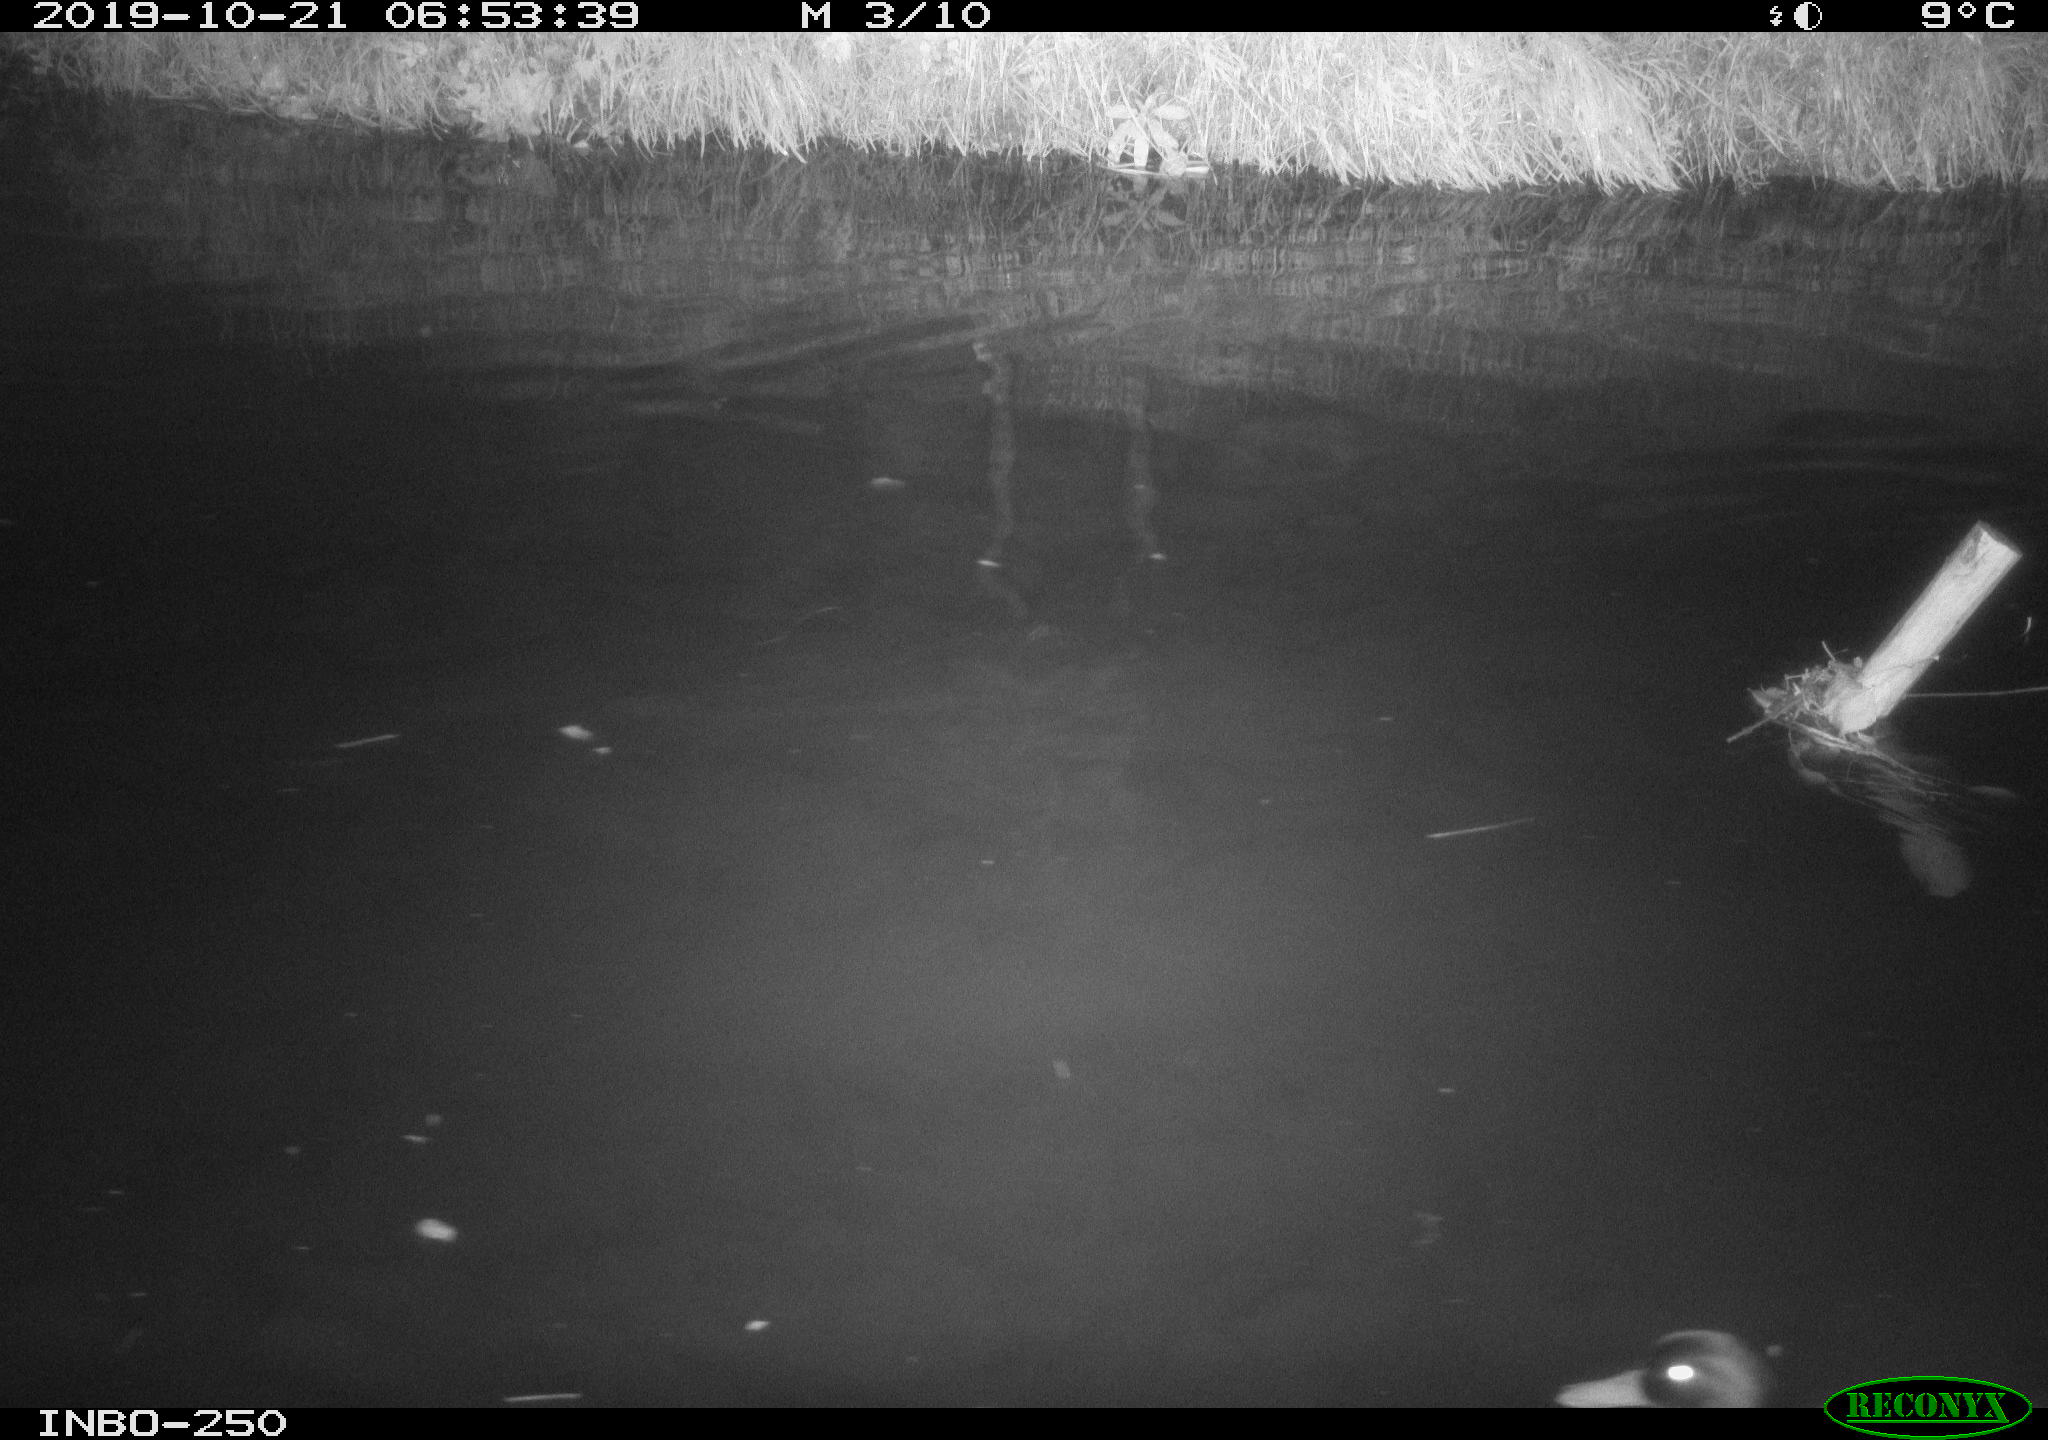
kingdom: Animalia
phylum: Chordata
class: Aves
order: Anseriformes
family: Anatidae
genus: Anas
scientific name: Anas platyrhynchos
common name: Mallard
